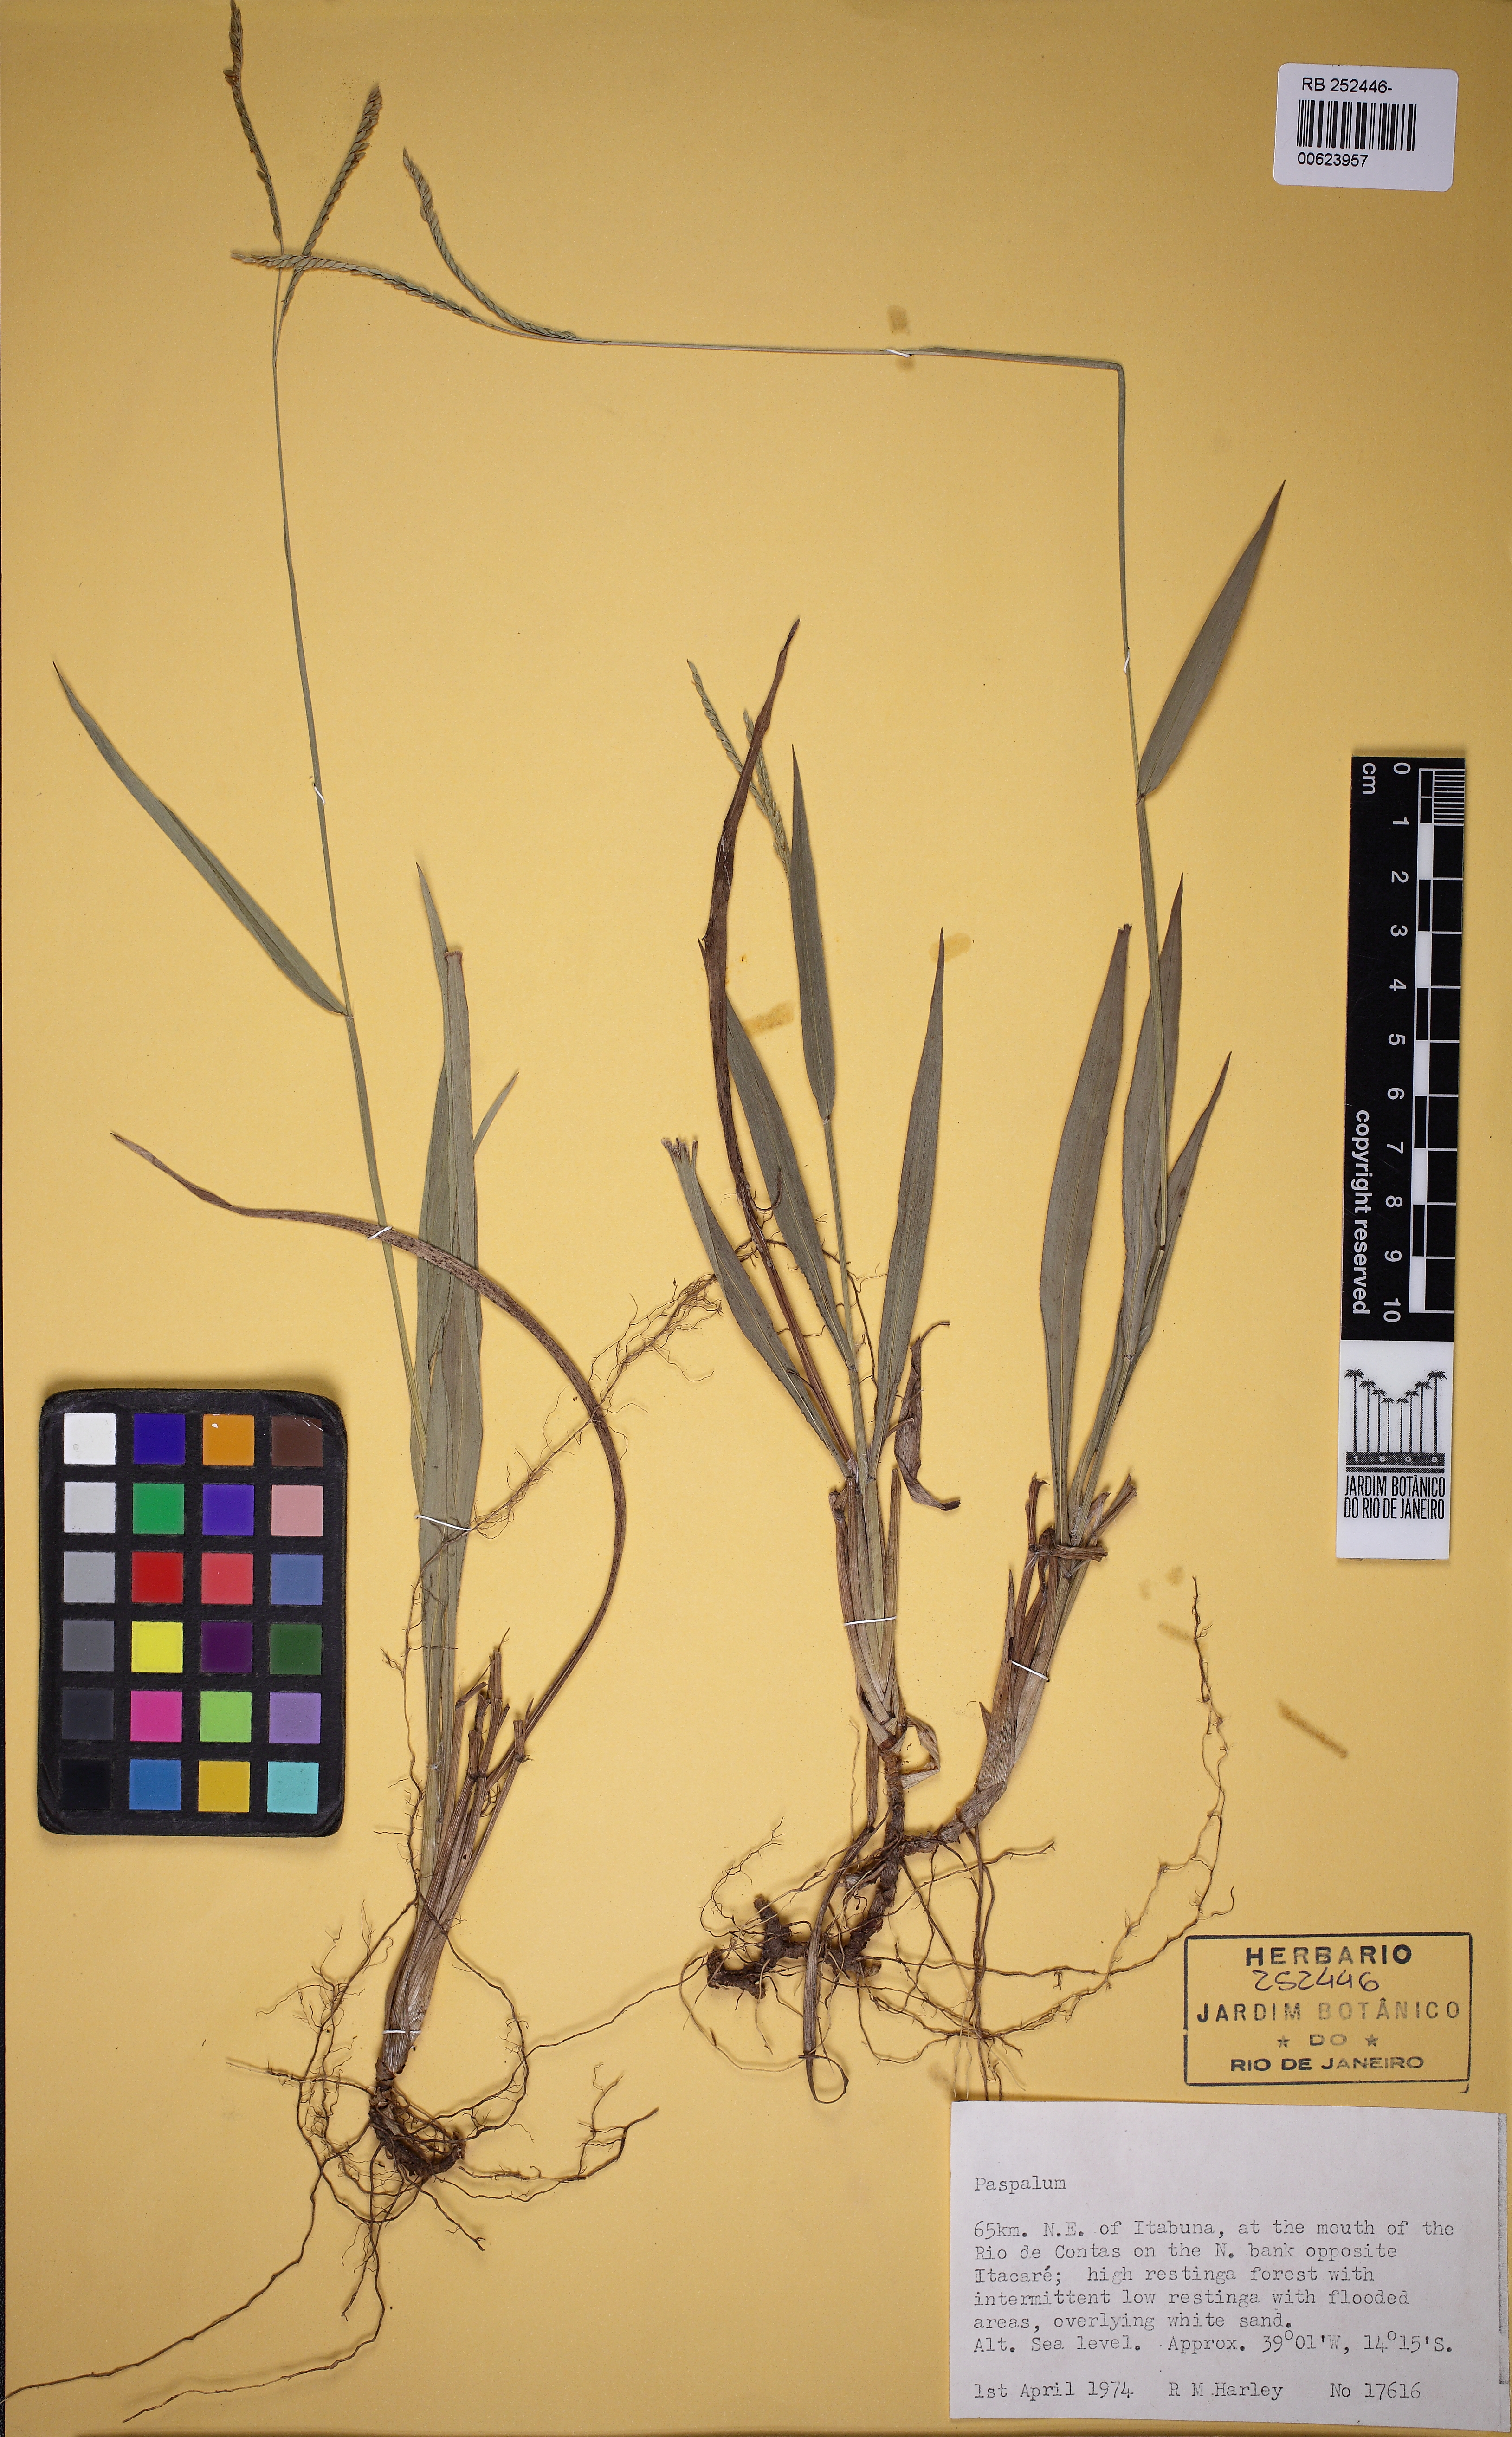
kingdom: Plantae
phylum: Tracheophyta
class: Liliopsida
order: Poales
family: Poaceae
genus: Paspalum
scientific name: Paspalum
